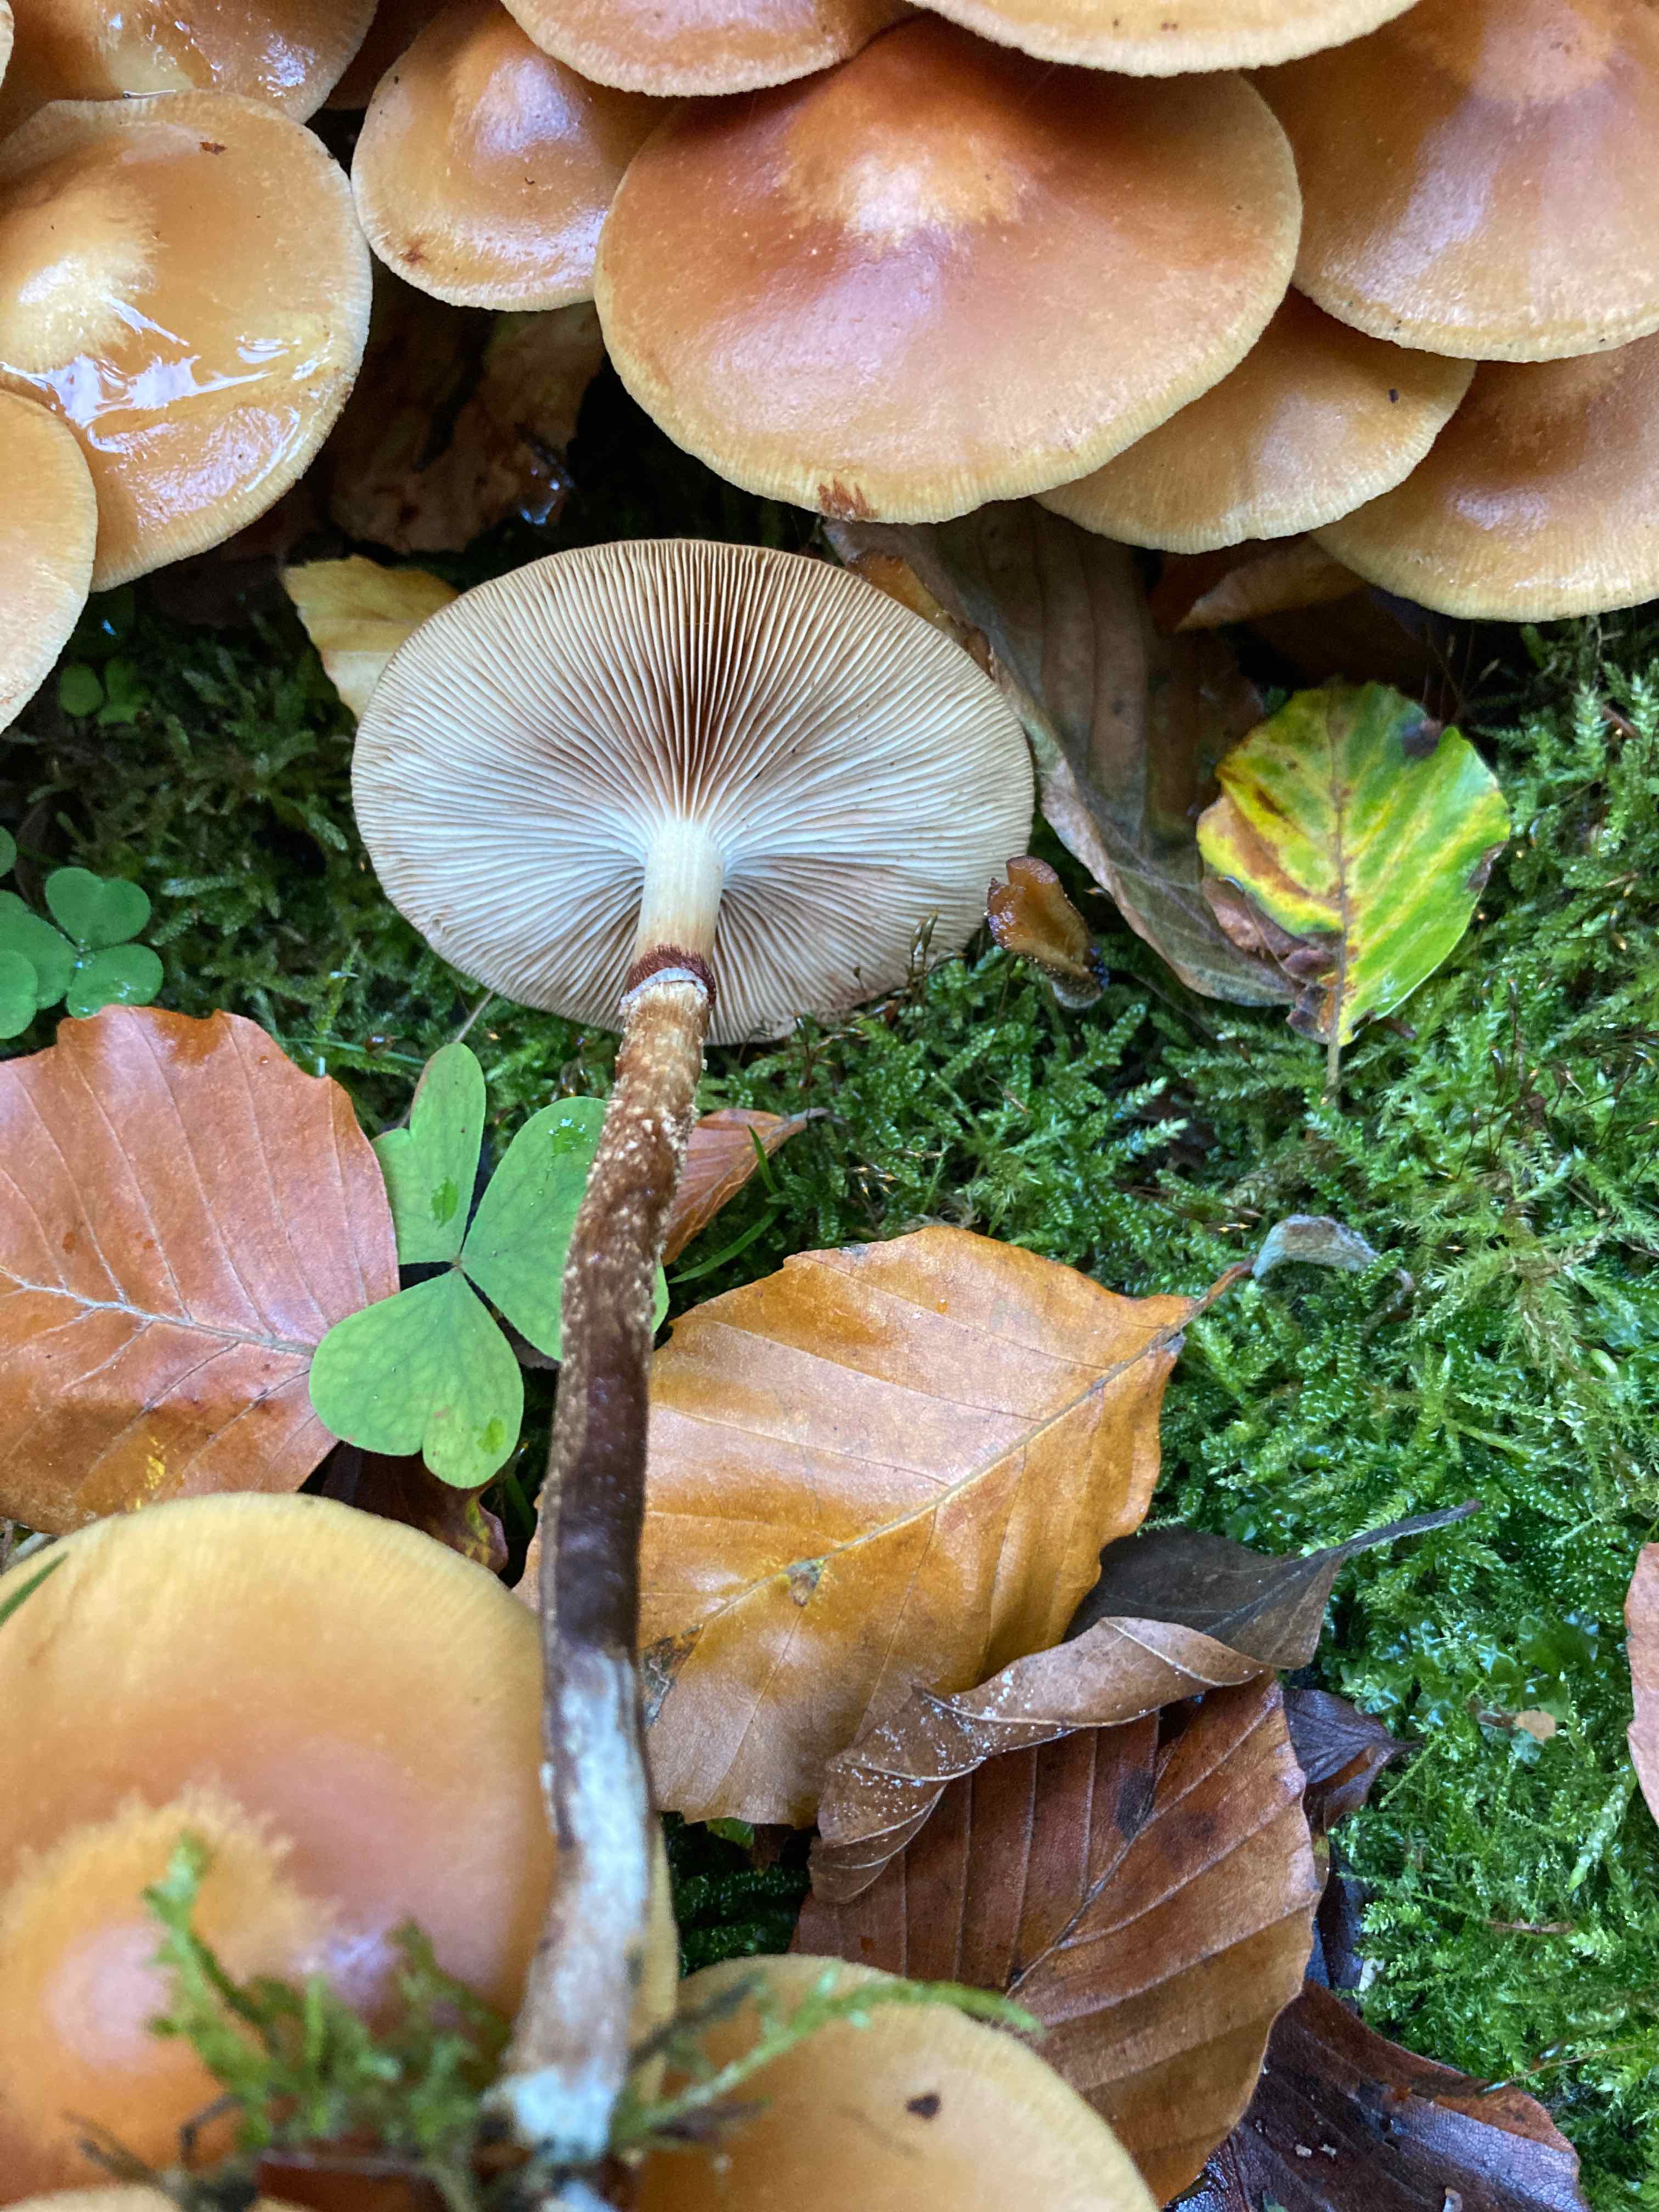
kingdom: Fungi
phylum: Basidiomycota
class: Agaricomycetes
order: Agaricales
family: Strophariaceae
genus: Kuehneromyces
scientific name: Kuehneromyces mutabilis
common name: foranderlig skælhat
